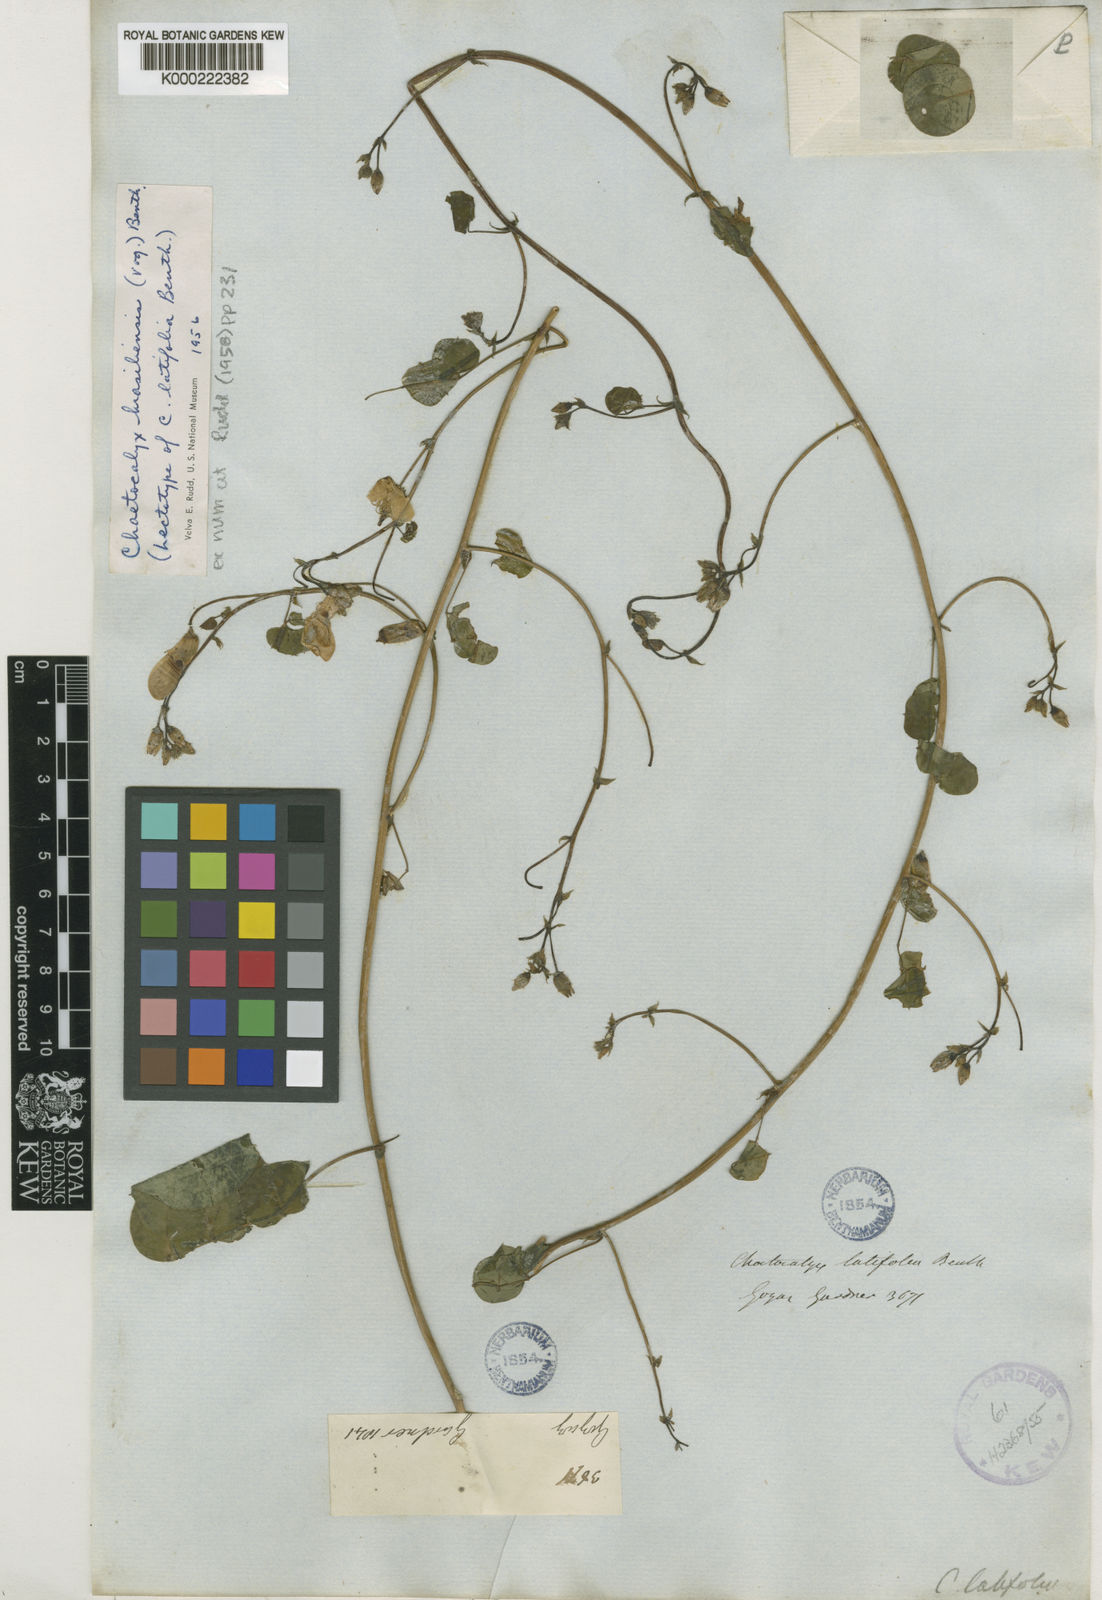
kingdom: Plantae
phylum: Tracheophyta
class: Magnoliopsida
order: Fabales
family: Fabaceae
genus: Nissolia
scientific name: Nissolia brasiliensis
